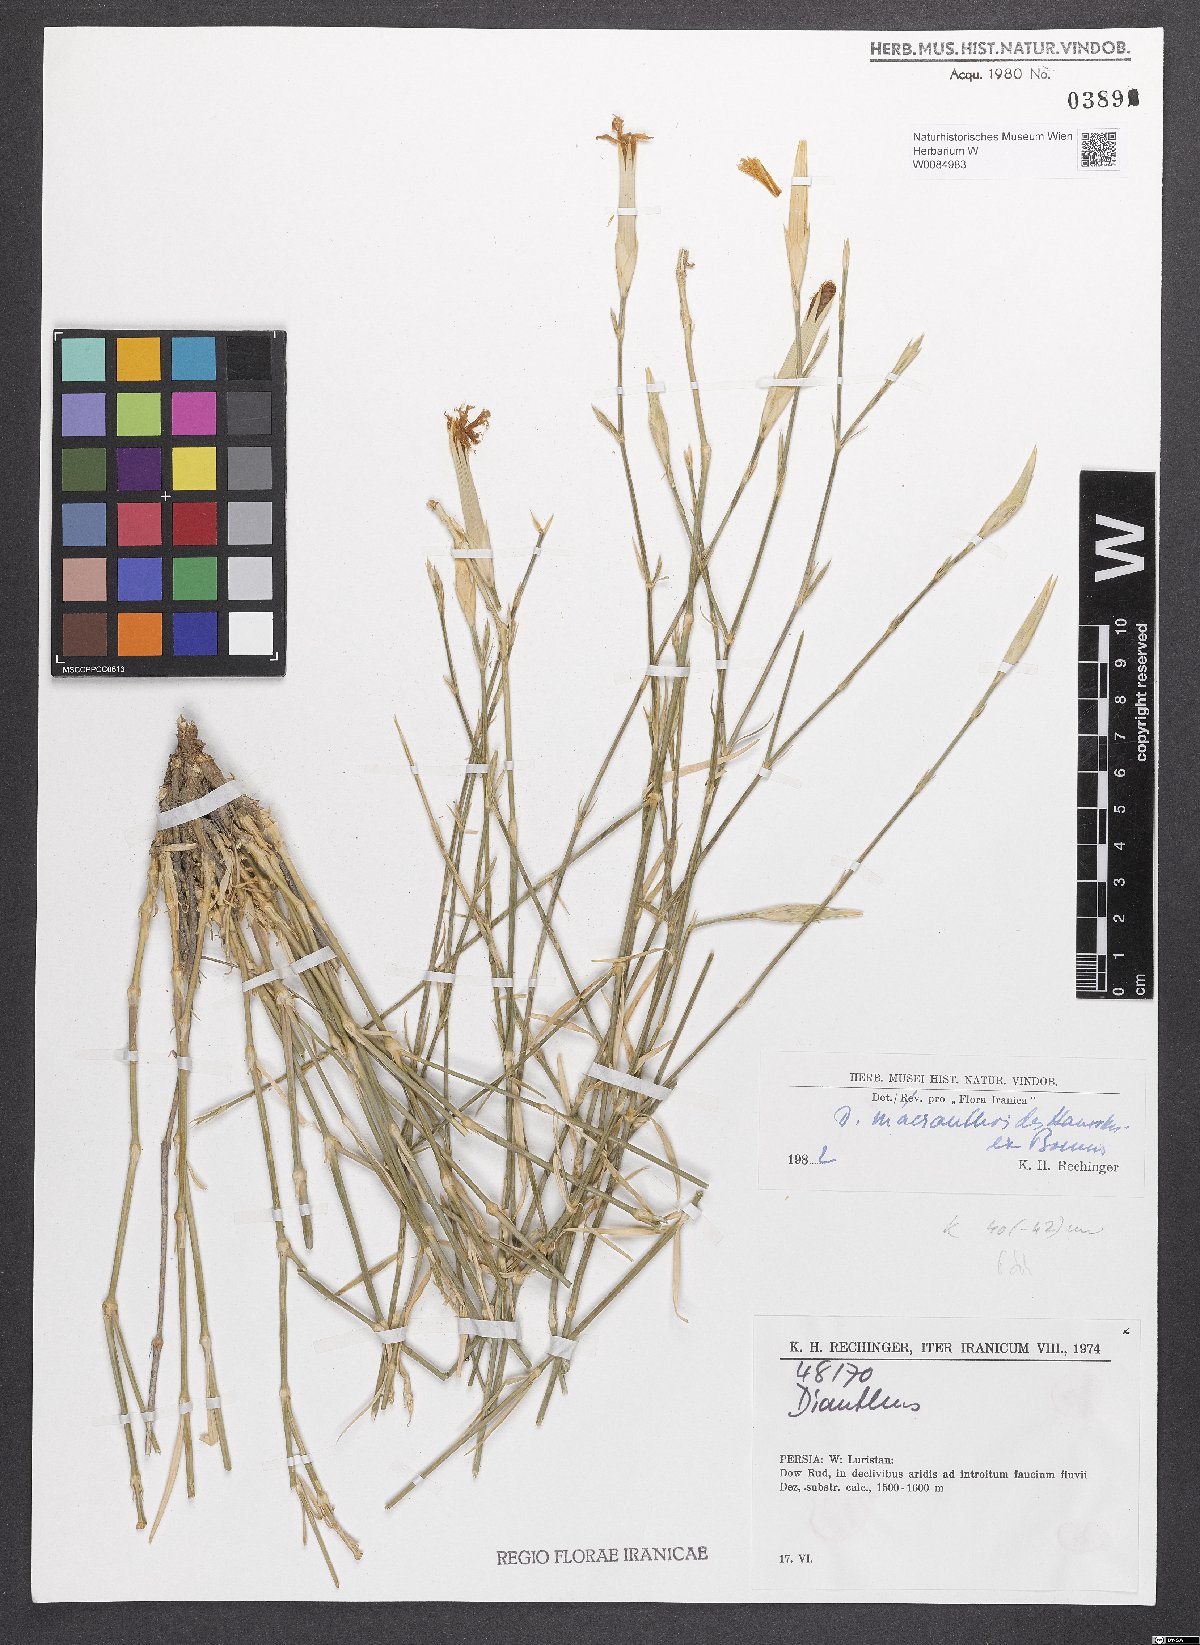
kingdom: Plantae
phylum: Tracheophyta
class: Magnoliopsida
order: Caryophyllales
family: Caryophyllaceae
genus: Dianthus
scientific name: Dianthus macranthoides
